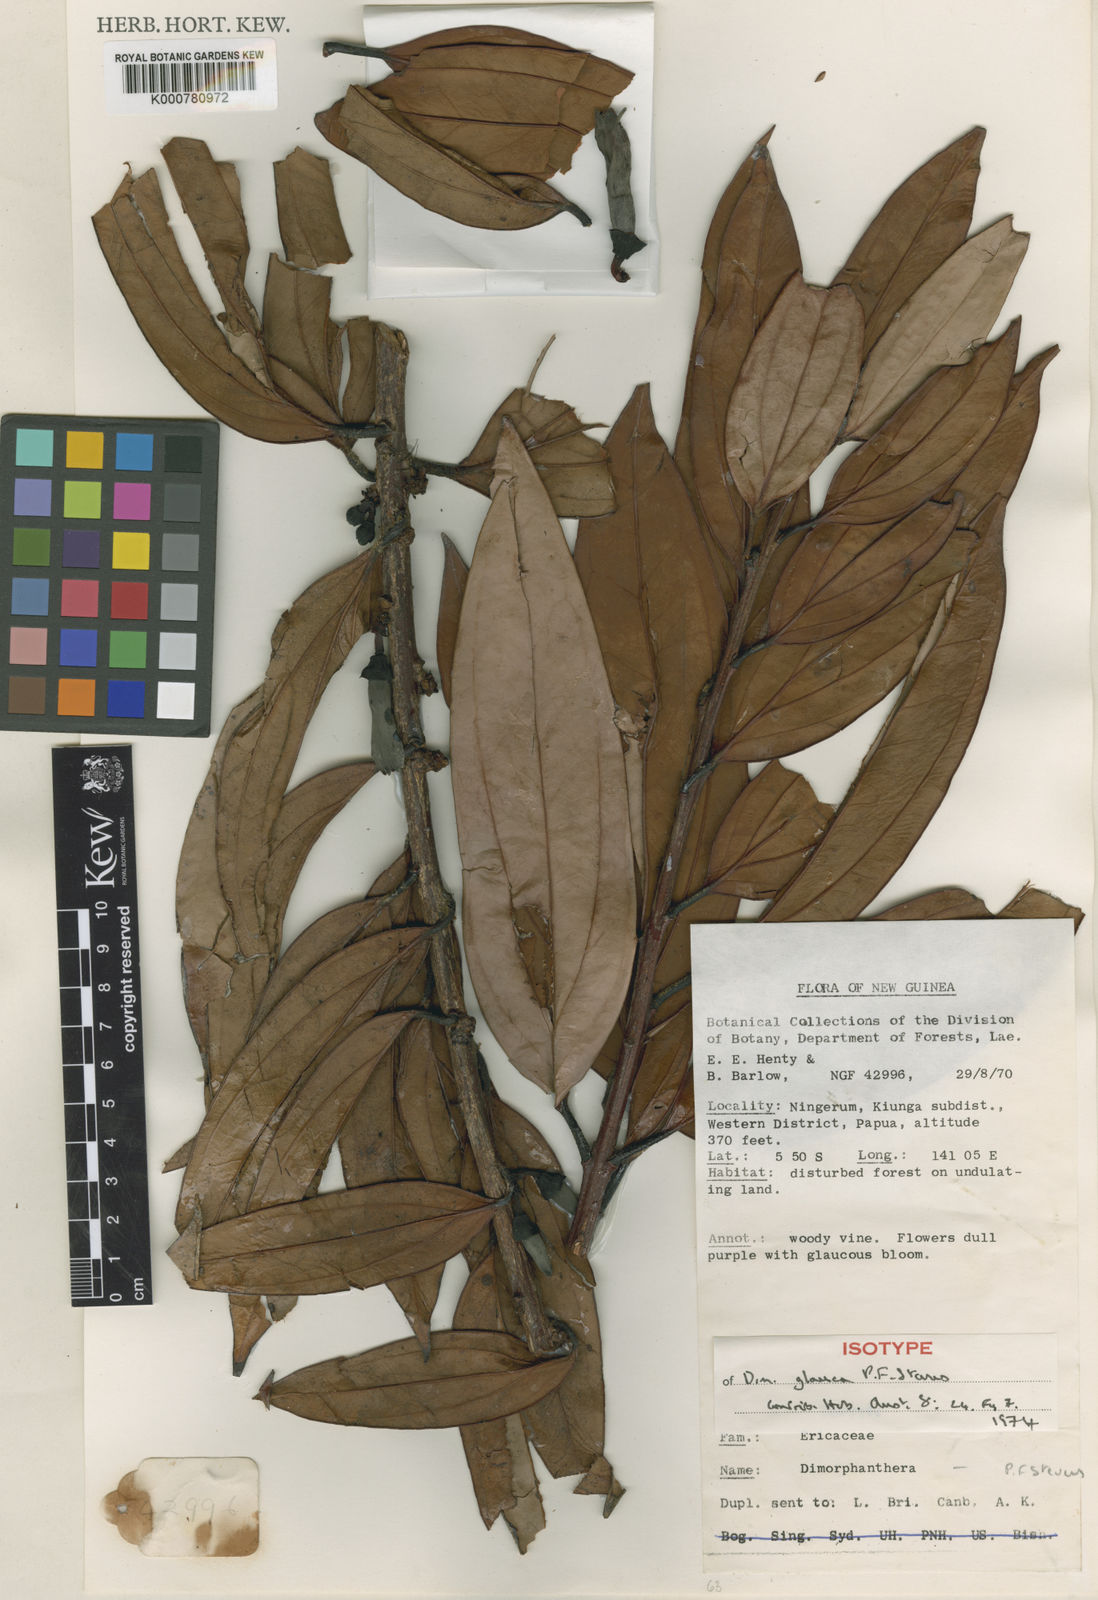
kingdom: Plantae
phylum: Tracheophyta
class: Magnoliopsida
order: Ericales
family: Ericaceae
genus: Dimorphanthera
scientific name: Dimorphanthera glauca
